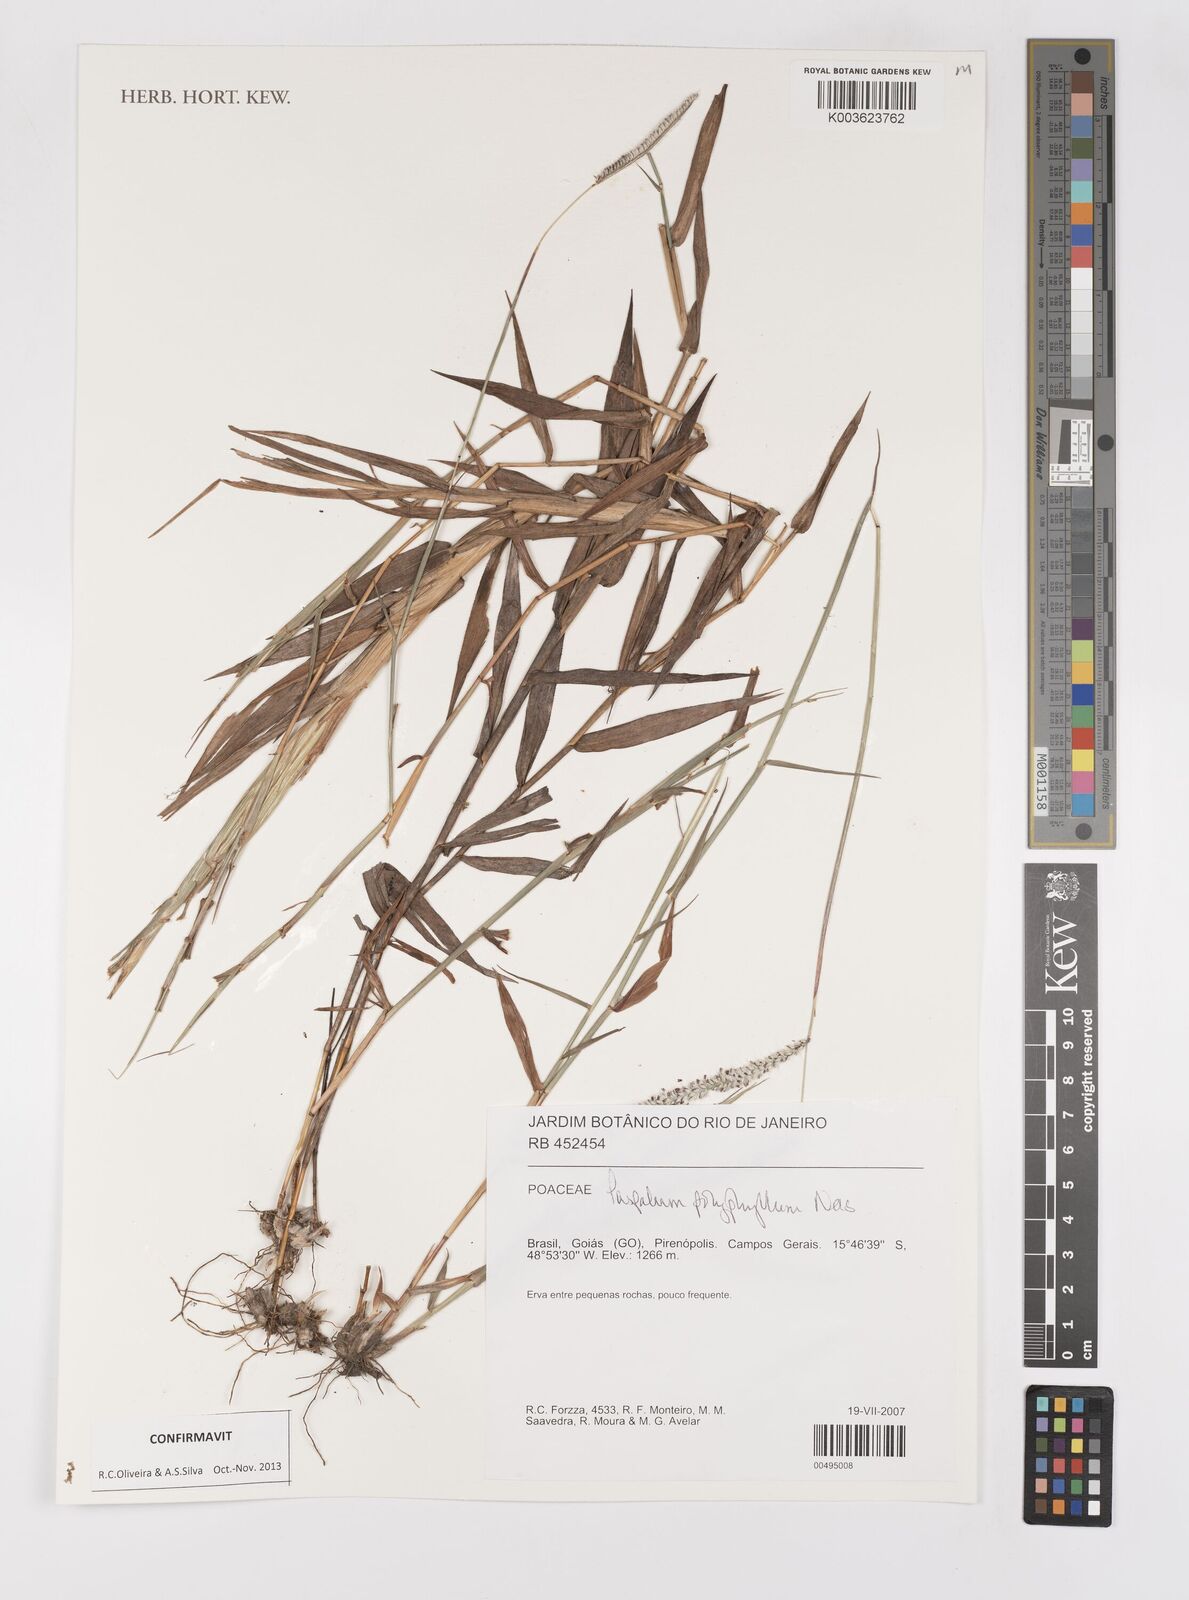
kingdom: Plantae
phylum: Tracheophyta
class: Liliopsida
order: Poales
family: Poaceae
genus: Paspalum
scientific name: Paspalum polyphyllum
